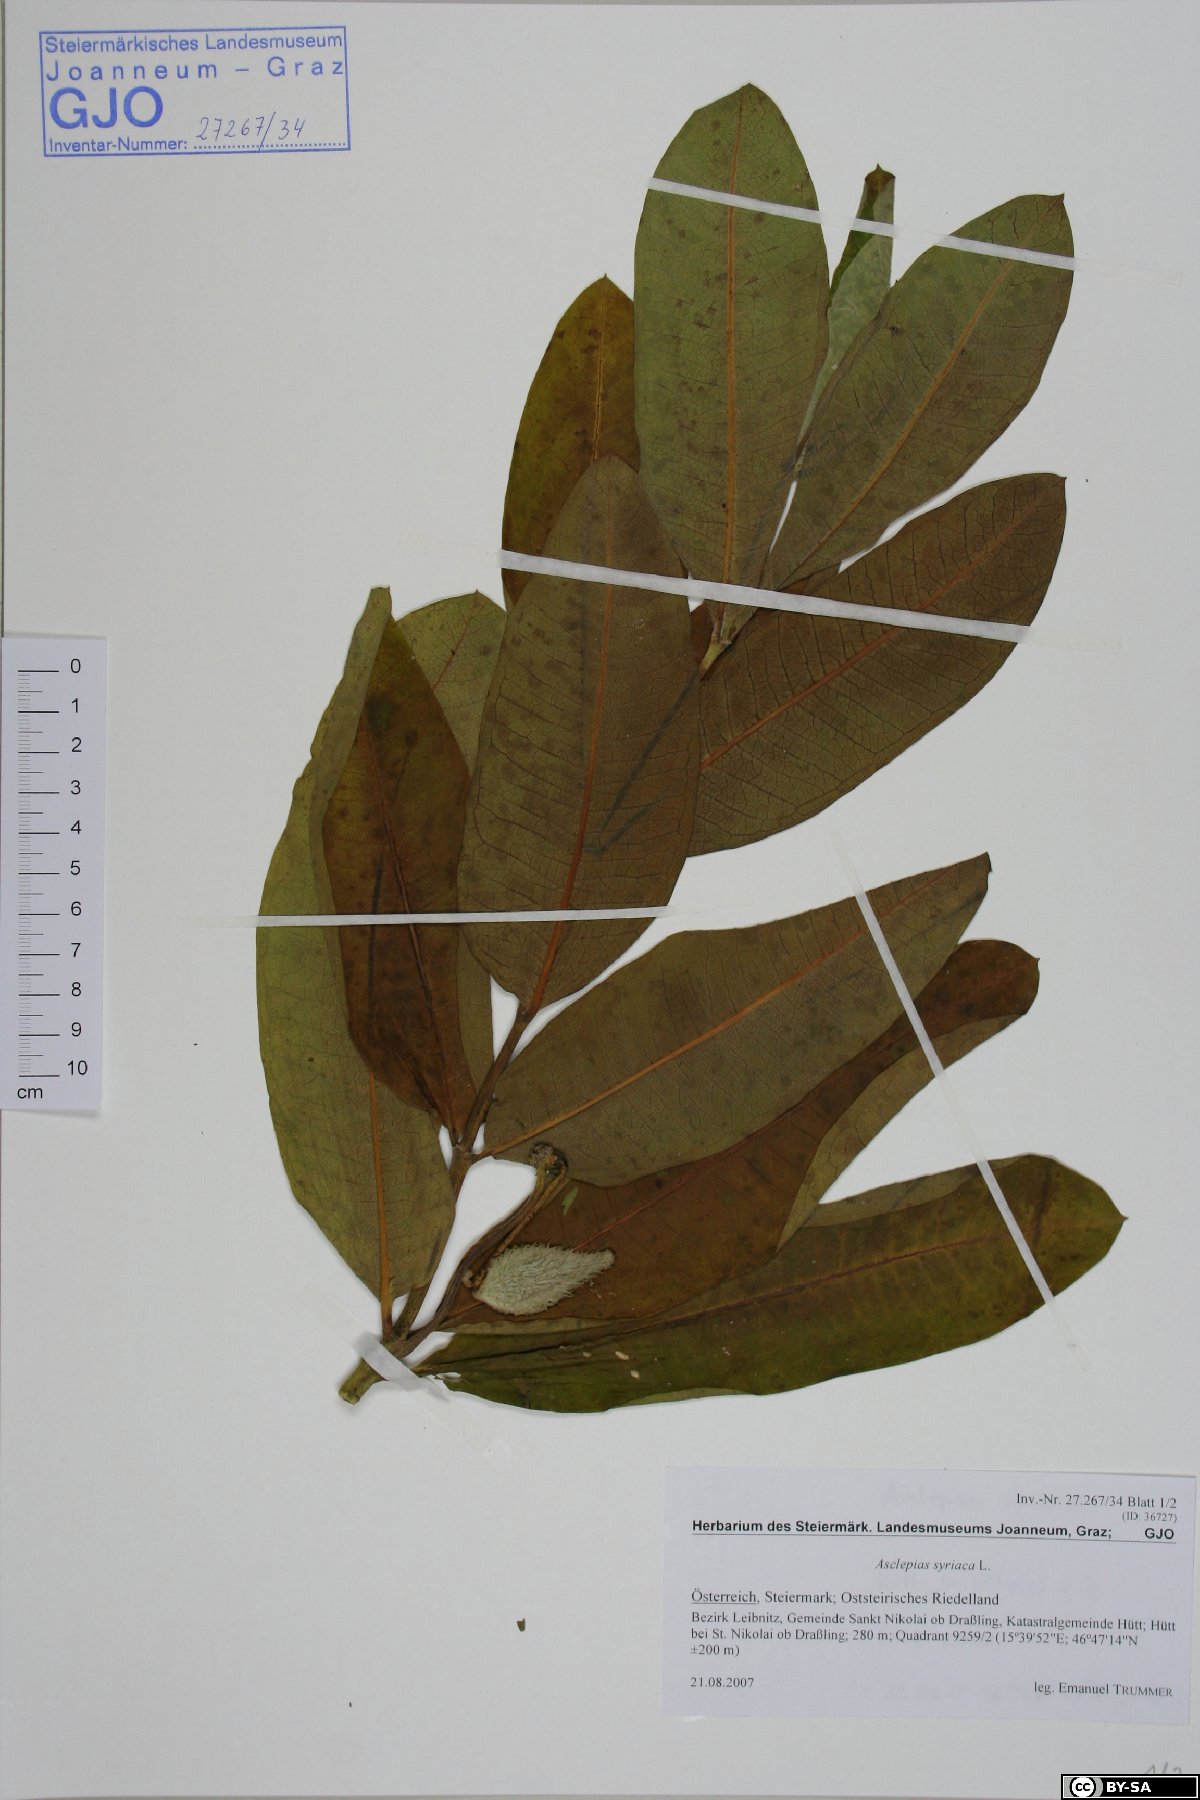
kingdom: Plantae
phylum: Tracheophyta
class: Magnoliopsida
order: Gentianales
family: Apocynaceae
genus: Asclepias
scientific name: Asclepias syriaca
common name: Common milkweed
